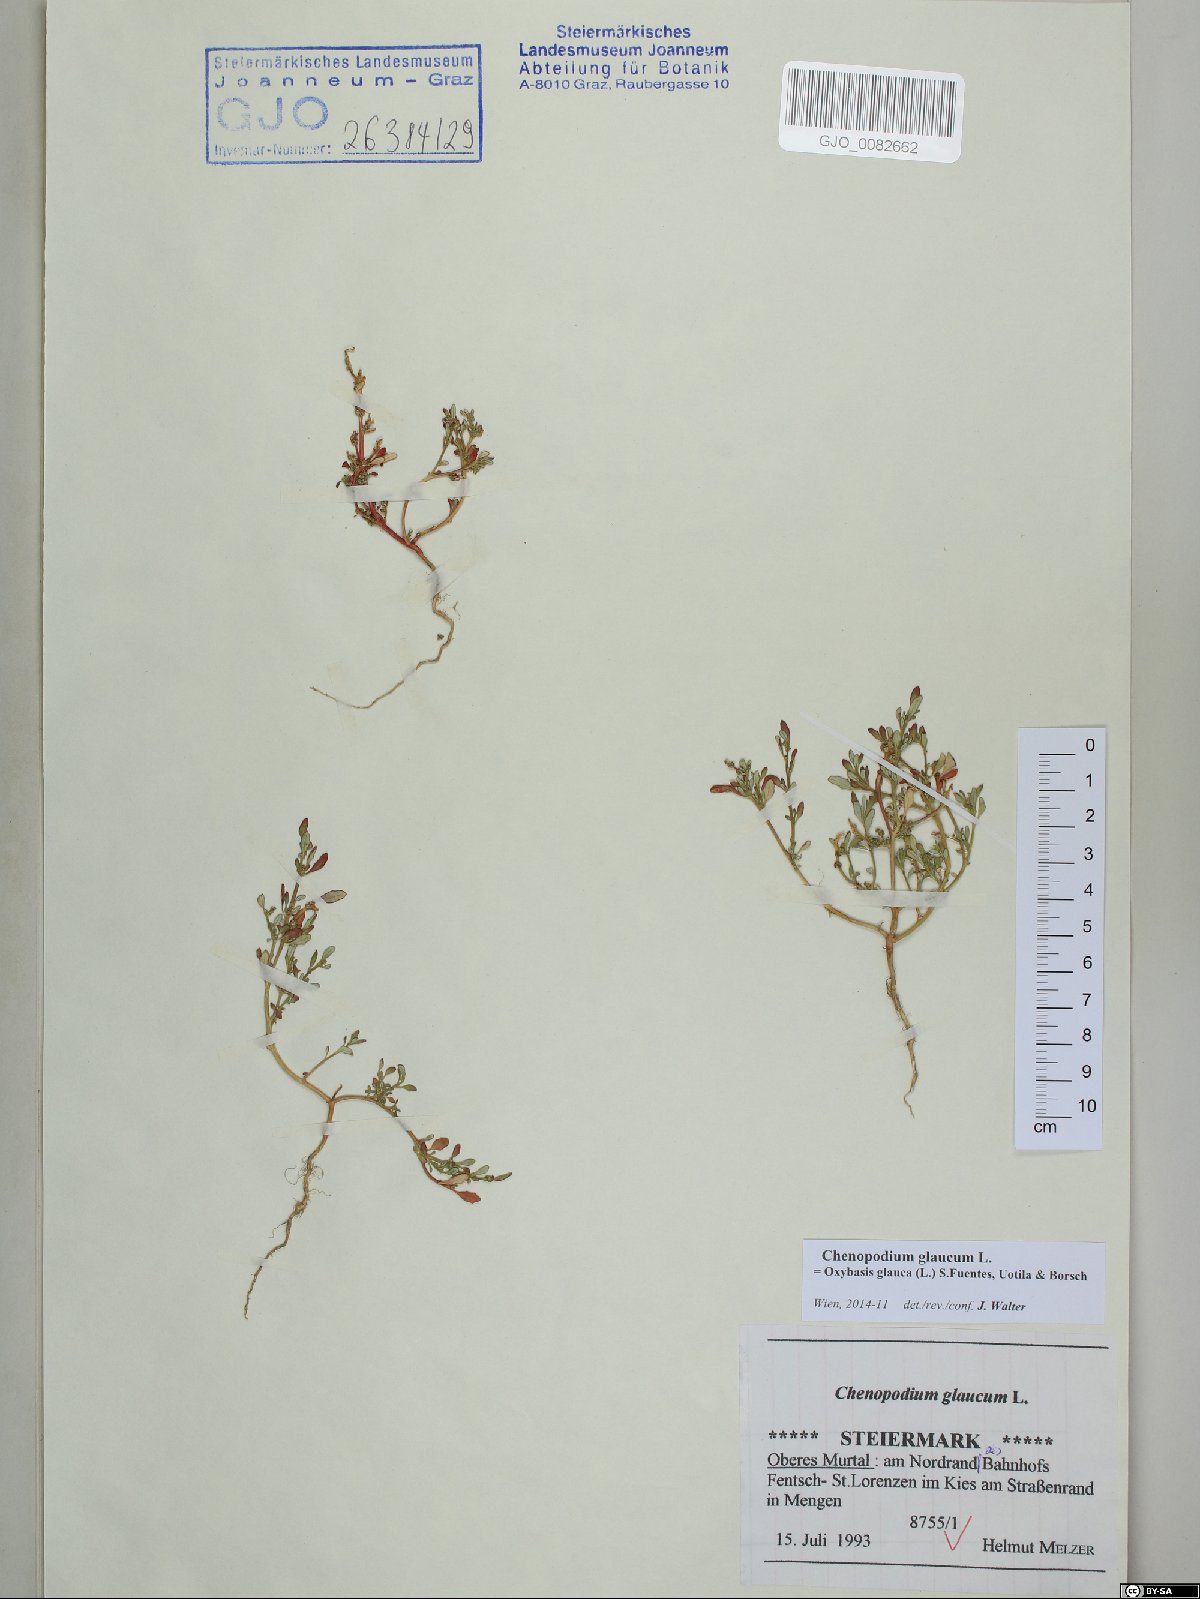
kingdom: Plantae
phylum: Tracheophyta
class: Magnoliopsida
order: Caryophyllales
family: Amaranthaceae
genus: Oxybasis
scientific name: Oxybasis glauca
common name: Glaucous goosefoot
